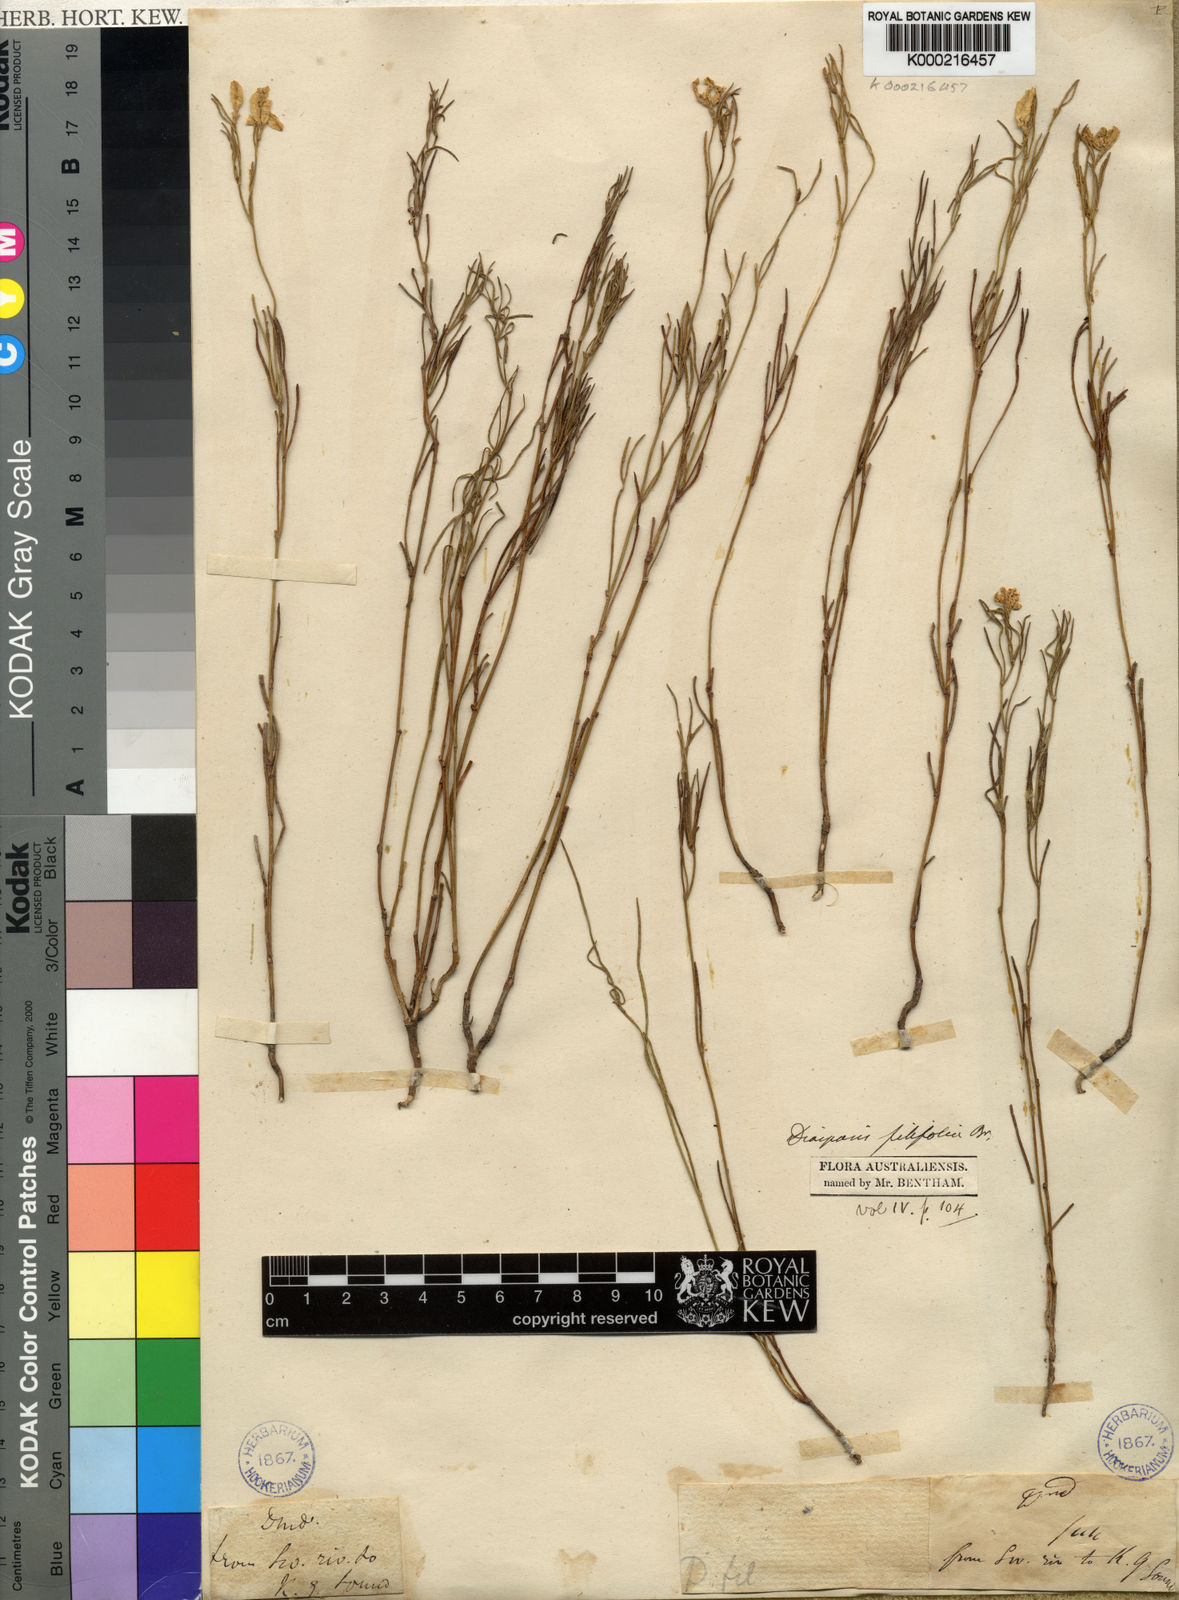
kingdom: Plantae
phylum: Tracheophyta
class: Magnoliopsida
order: Asterales
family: Goodeniaceae
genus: Scaevola
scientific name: Scaevola filifolia
